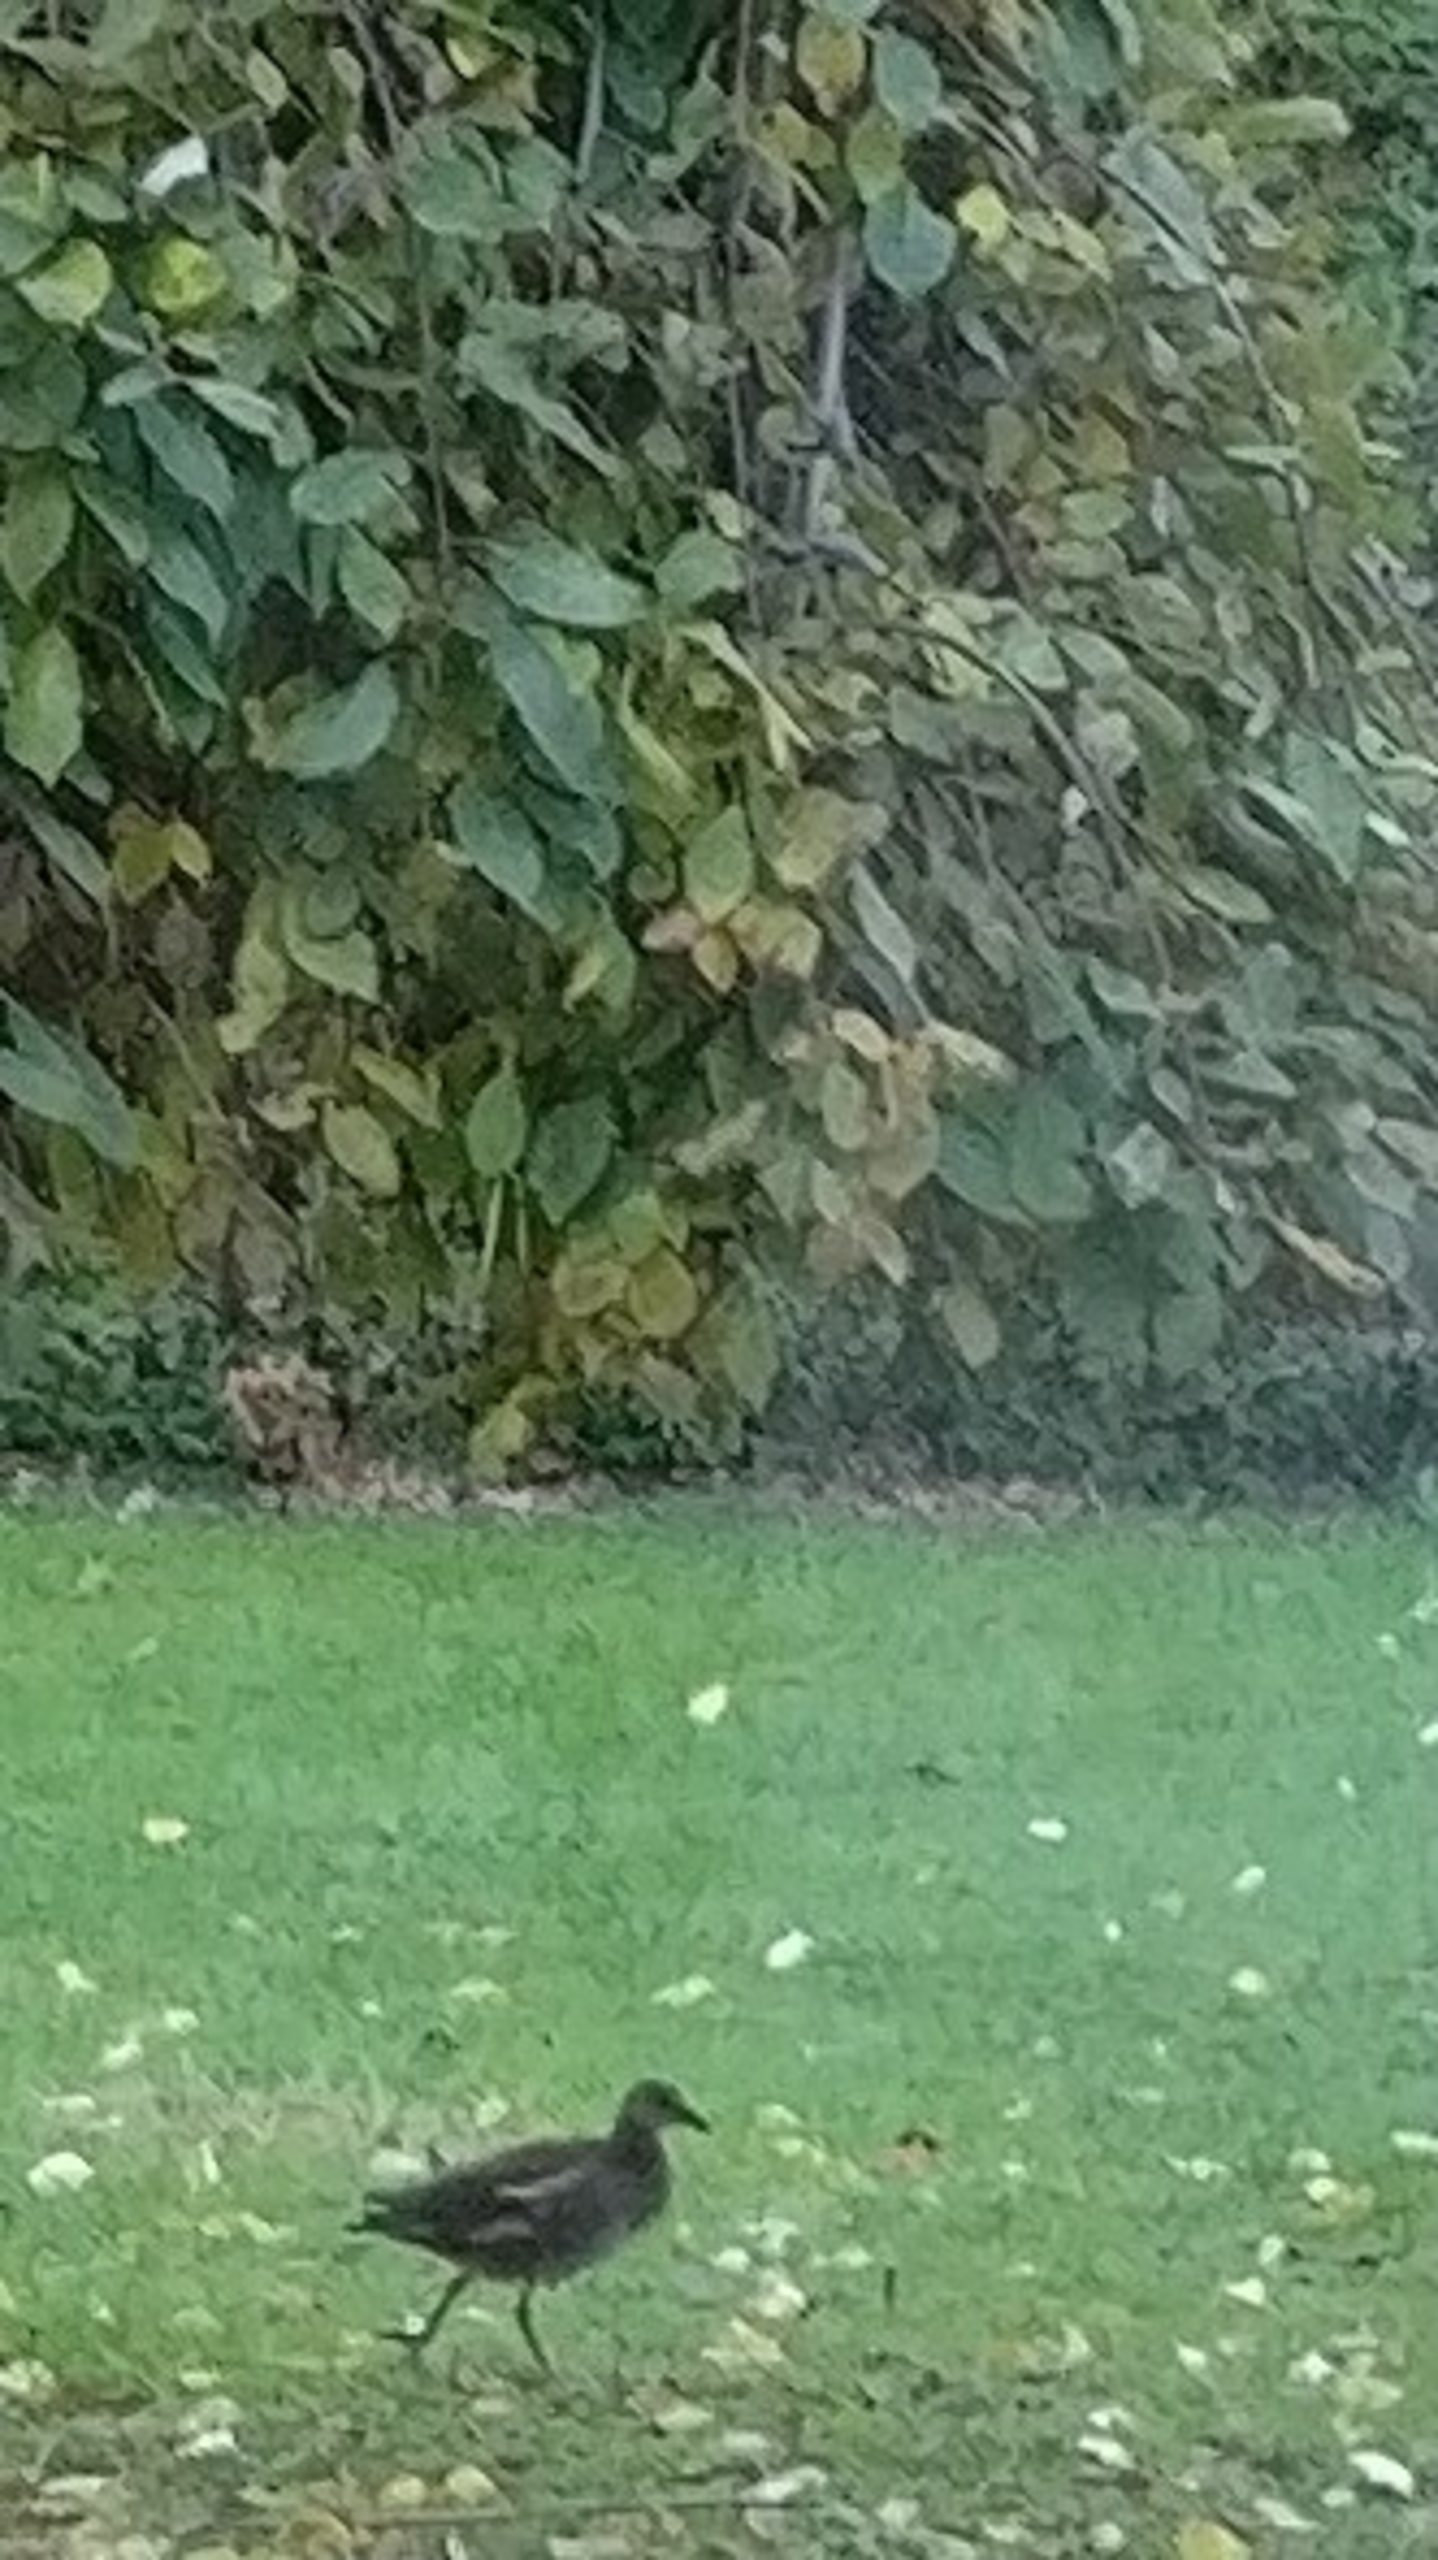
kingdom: Animalia
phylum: Chordata
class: Aves
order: Gruiformes
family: Rallidae
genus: Gallinula
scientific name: Gallinula chloropus
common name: Grønbenet rørhøne
